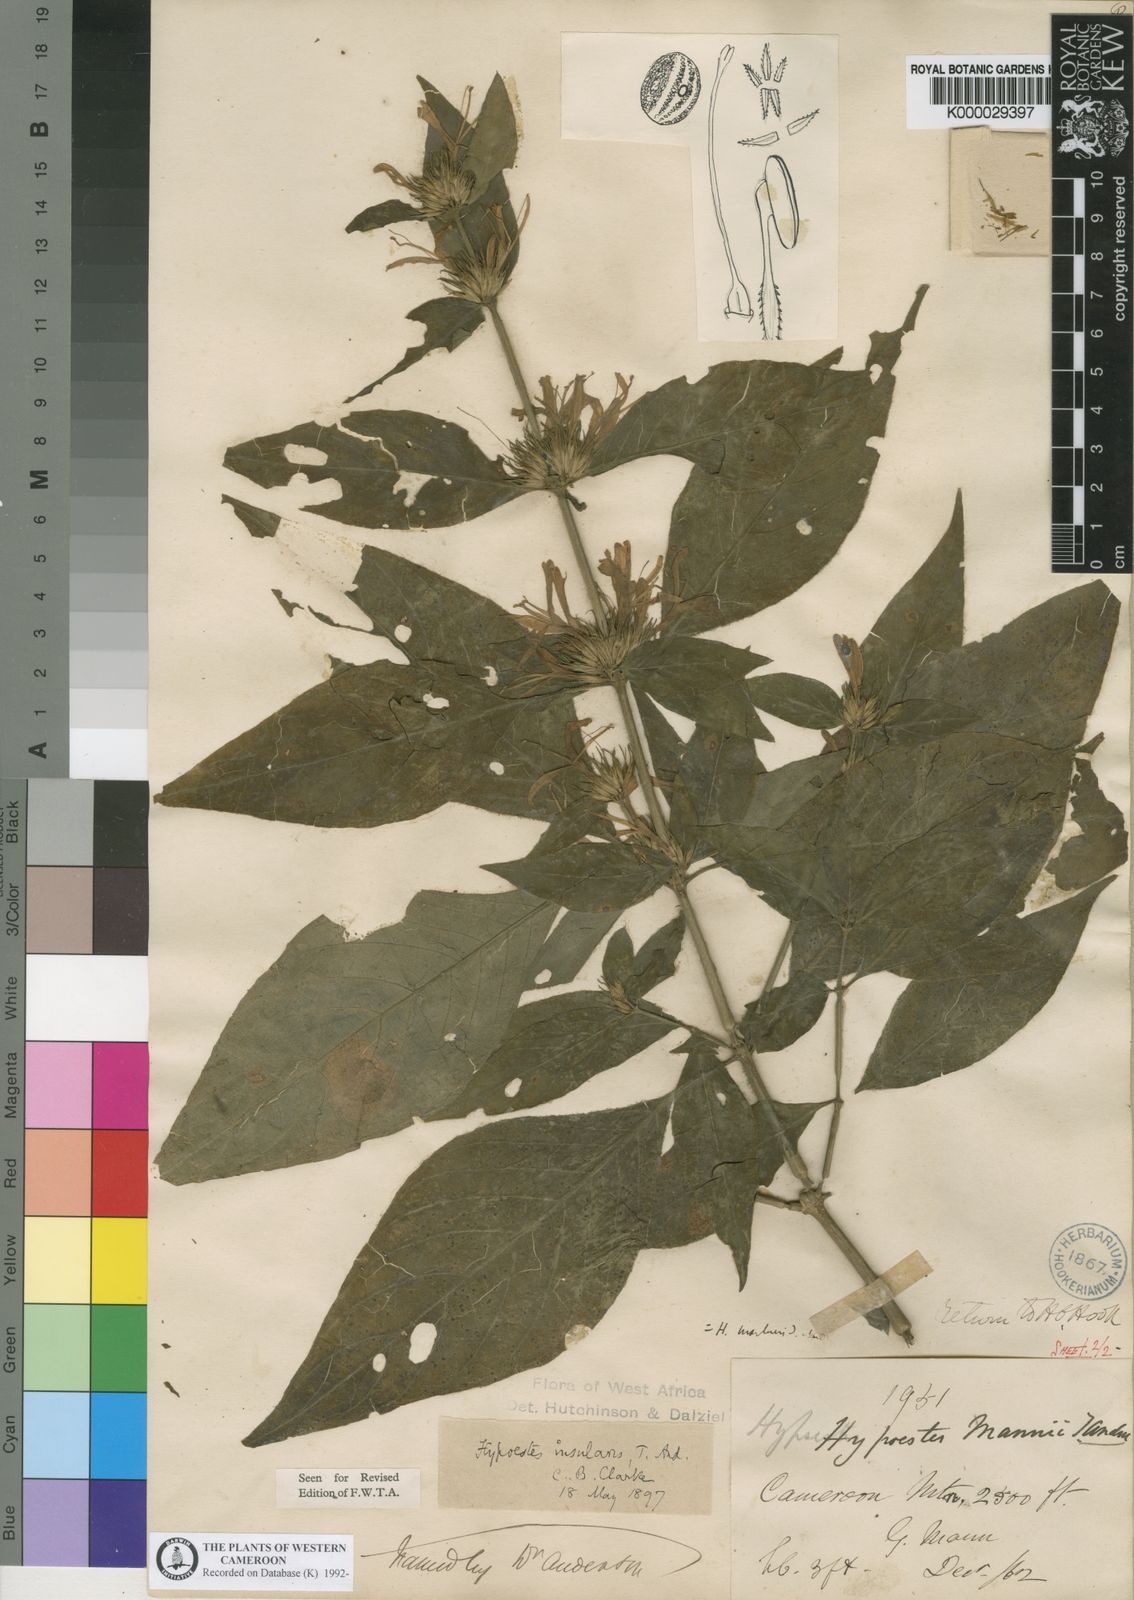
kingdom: Plantae
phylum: Tracheophyta
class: Magnoliopsida
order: Lamiales
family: Acanthaceae
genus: Hypoestes
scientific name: Hypoestes aristata
